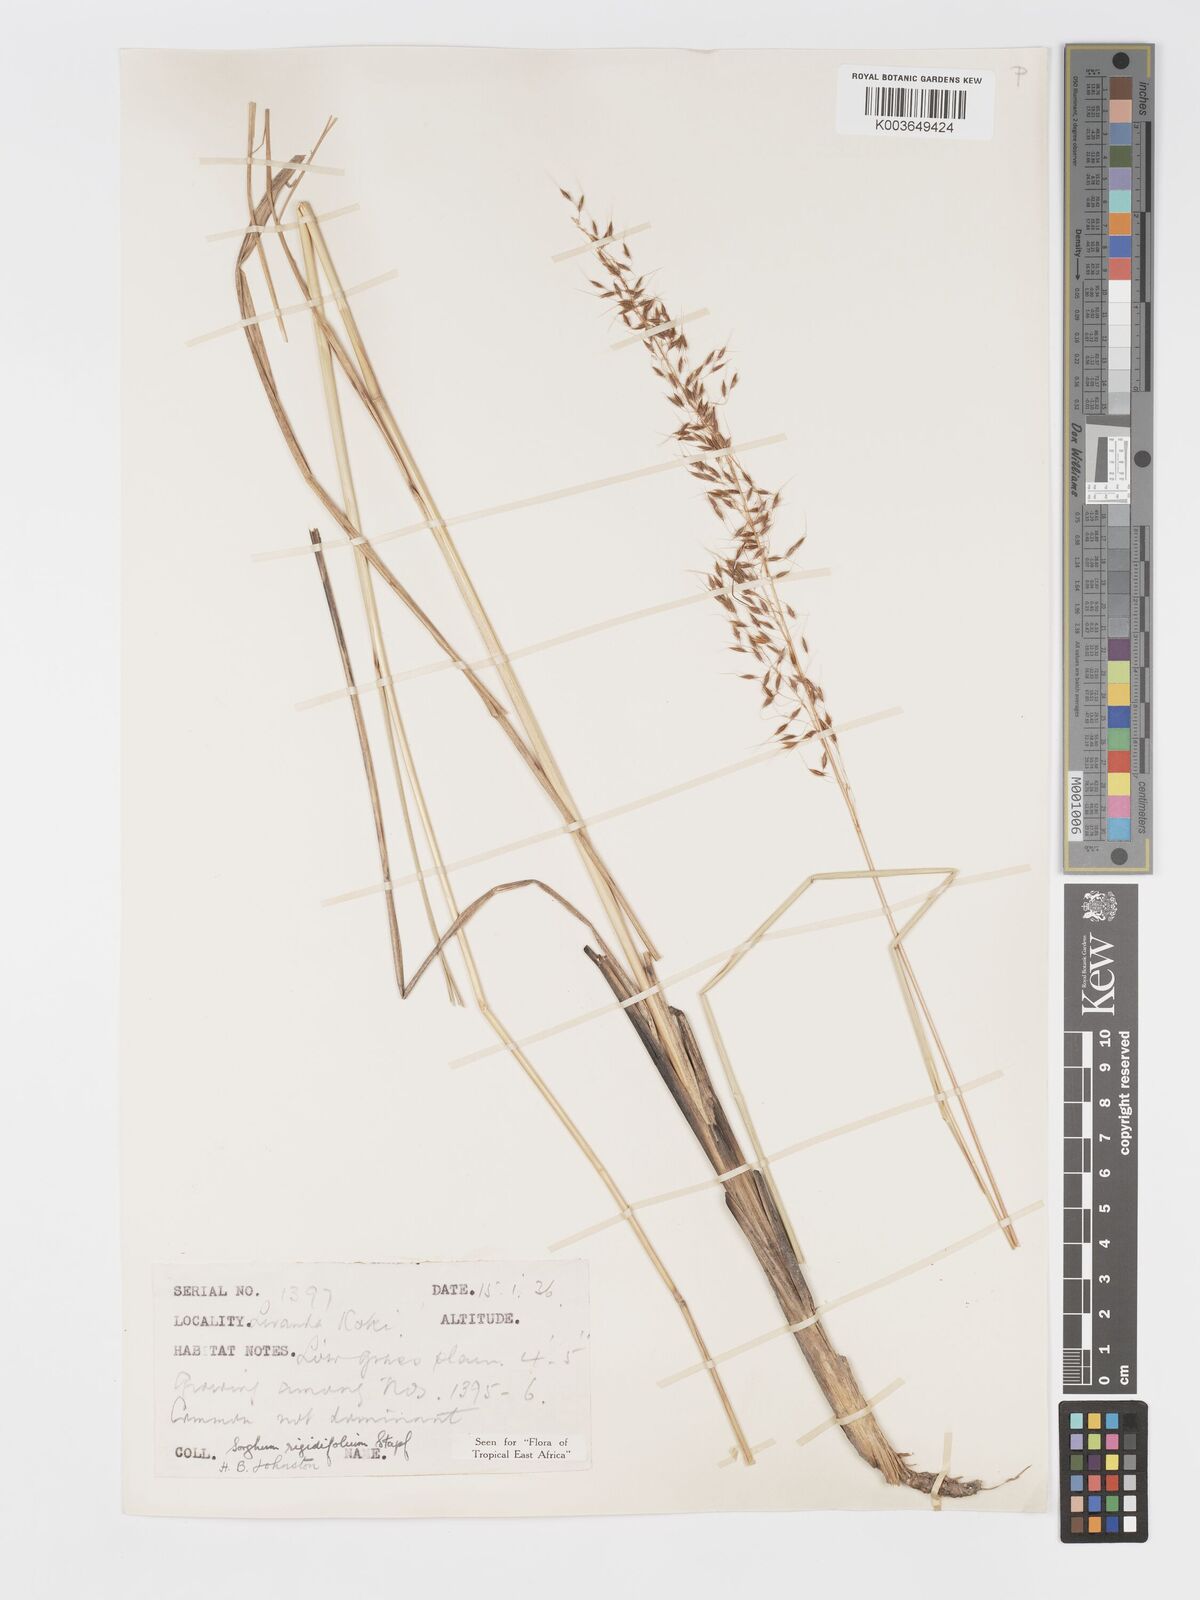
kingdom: Plantae
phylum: Tracheophyta
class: Liliopsida
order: Poales
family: Poaceae
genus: Sorghastrum
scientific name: Sorghastrum stipoides
